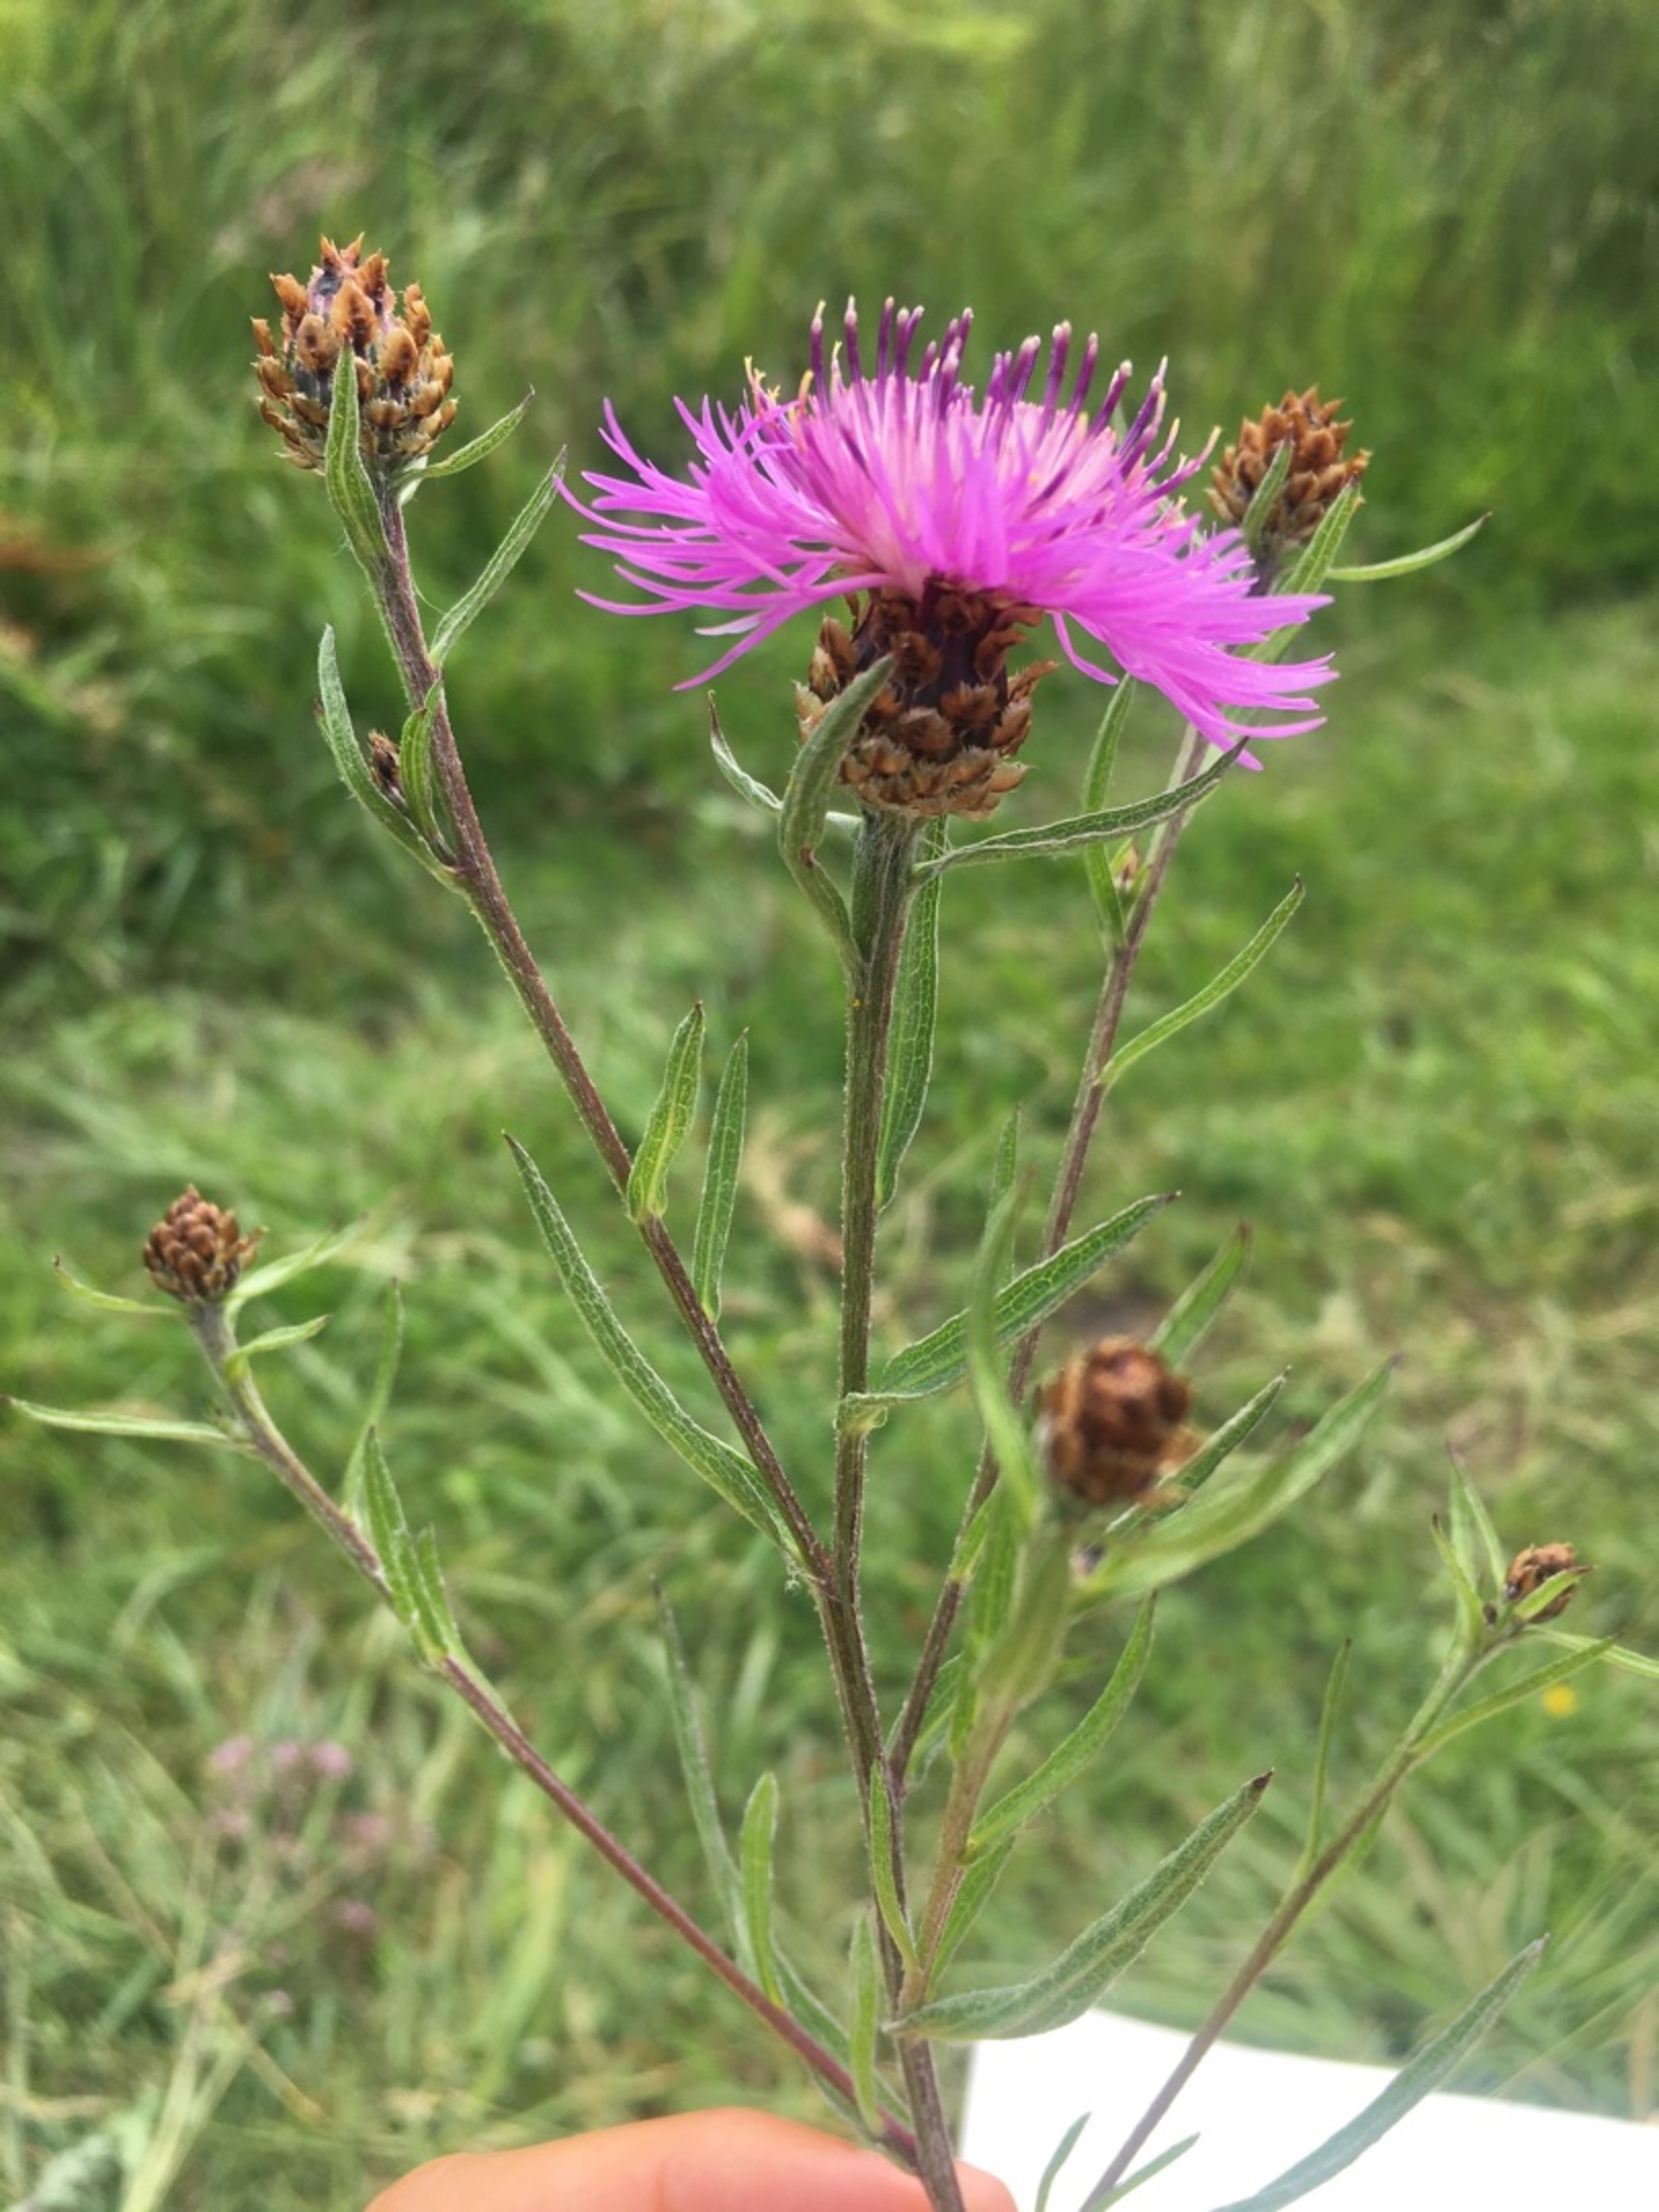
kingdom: Plantae
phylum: Tracheophyta
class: Magnoliopsida
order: Asterales
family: Asteraceae
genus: Centaurea
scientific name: Centaurea jacea
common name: Almindelig knopurt
